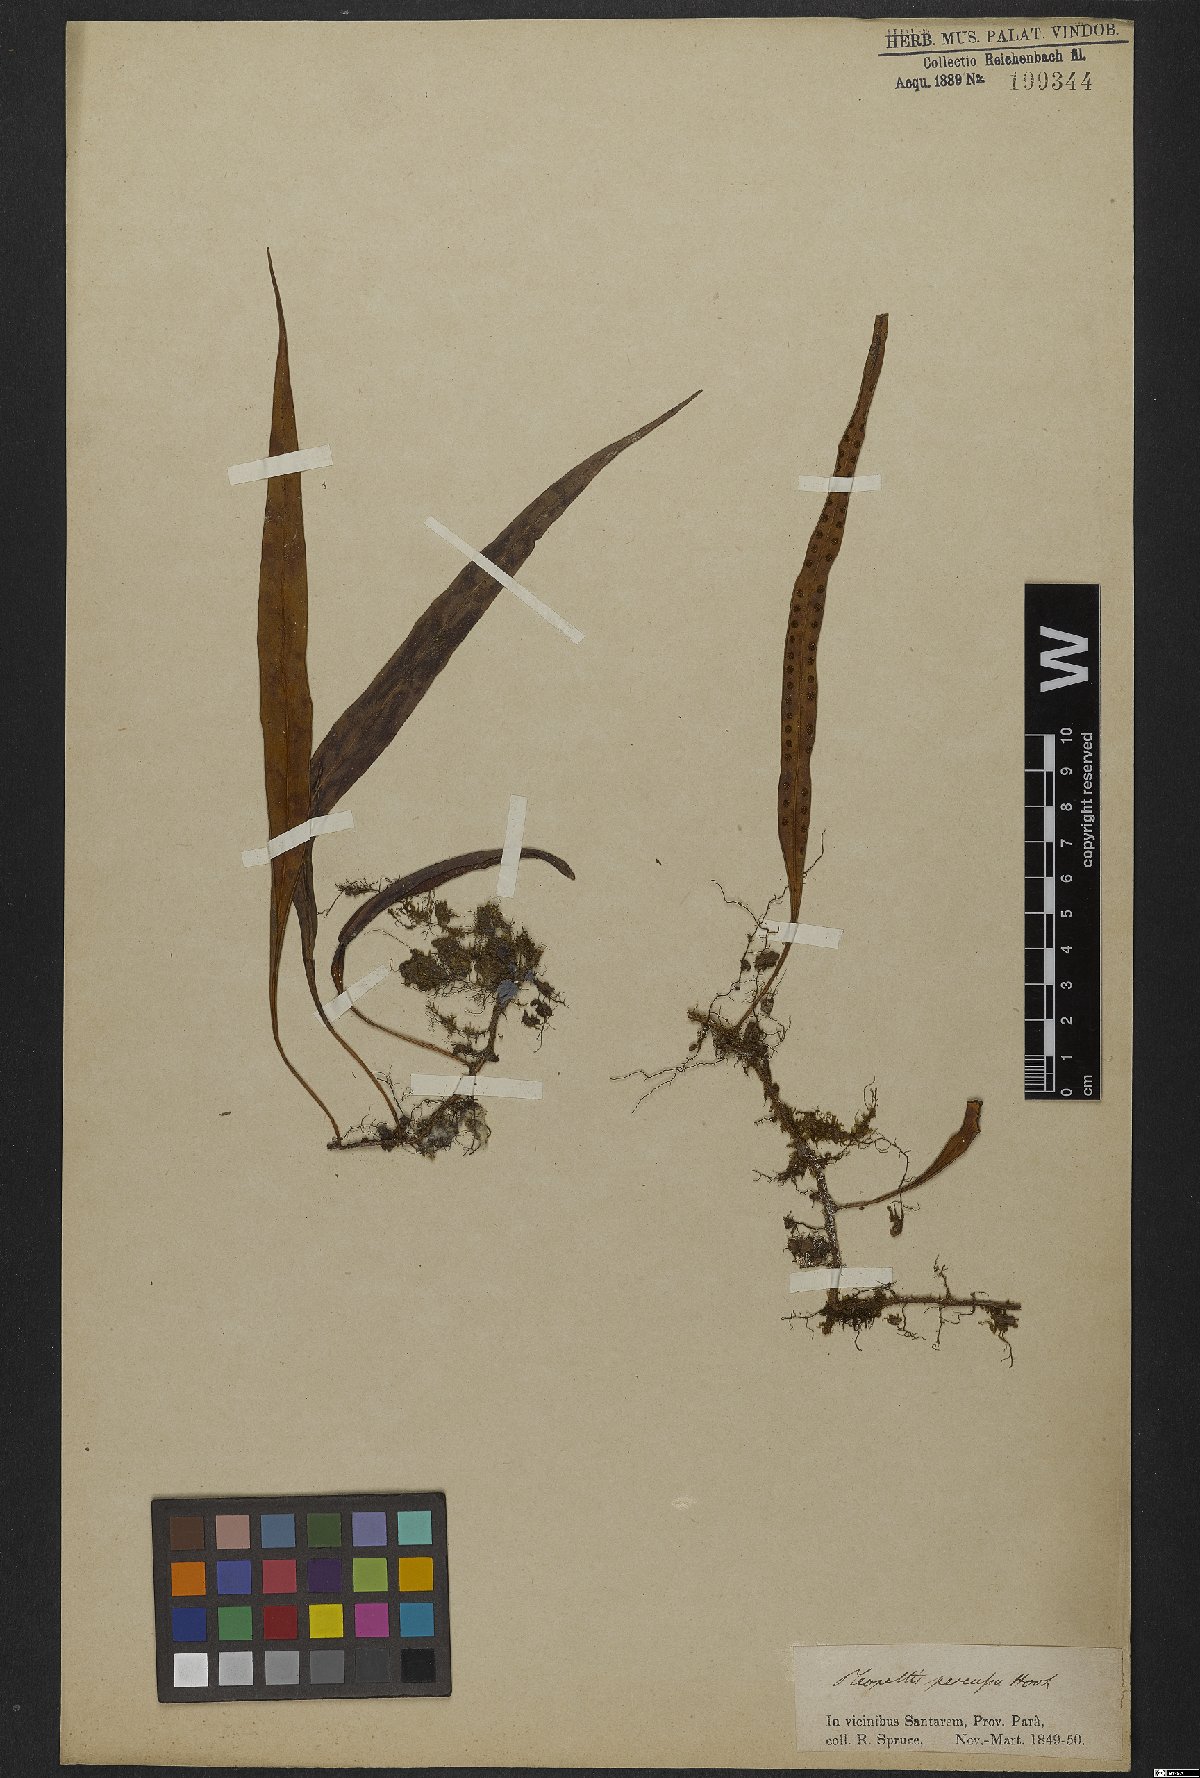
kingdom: Plantae
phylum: Tracheophyta
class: Polypodiopsida
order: Polypodiales
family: Polypodiaceae
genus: Microgramma
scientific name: Microgramma persicariifolia
